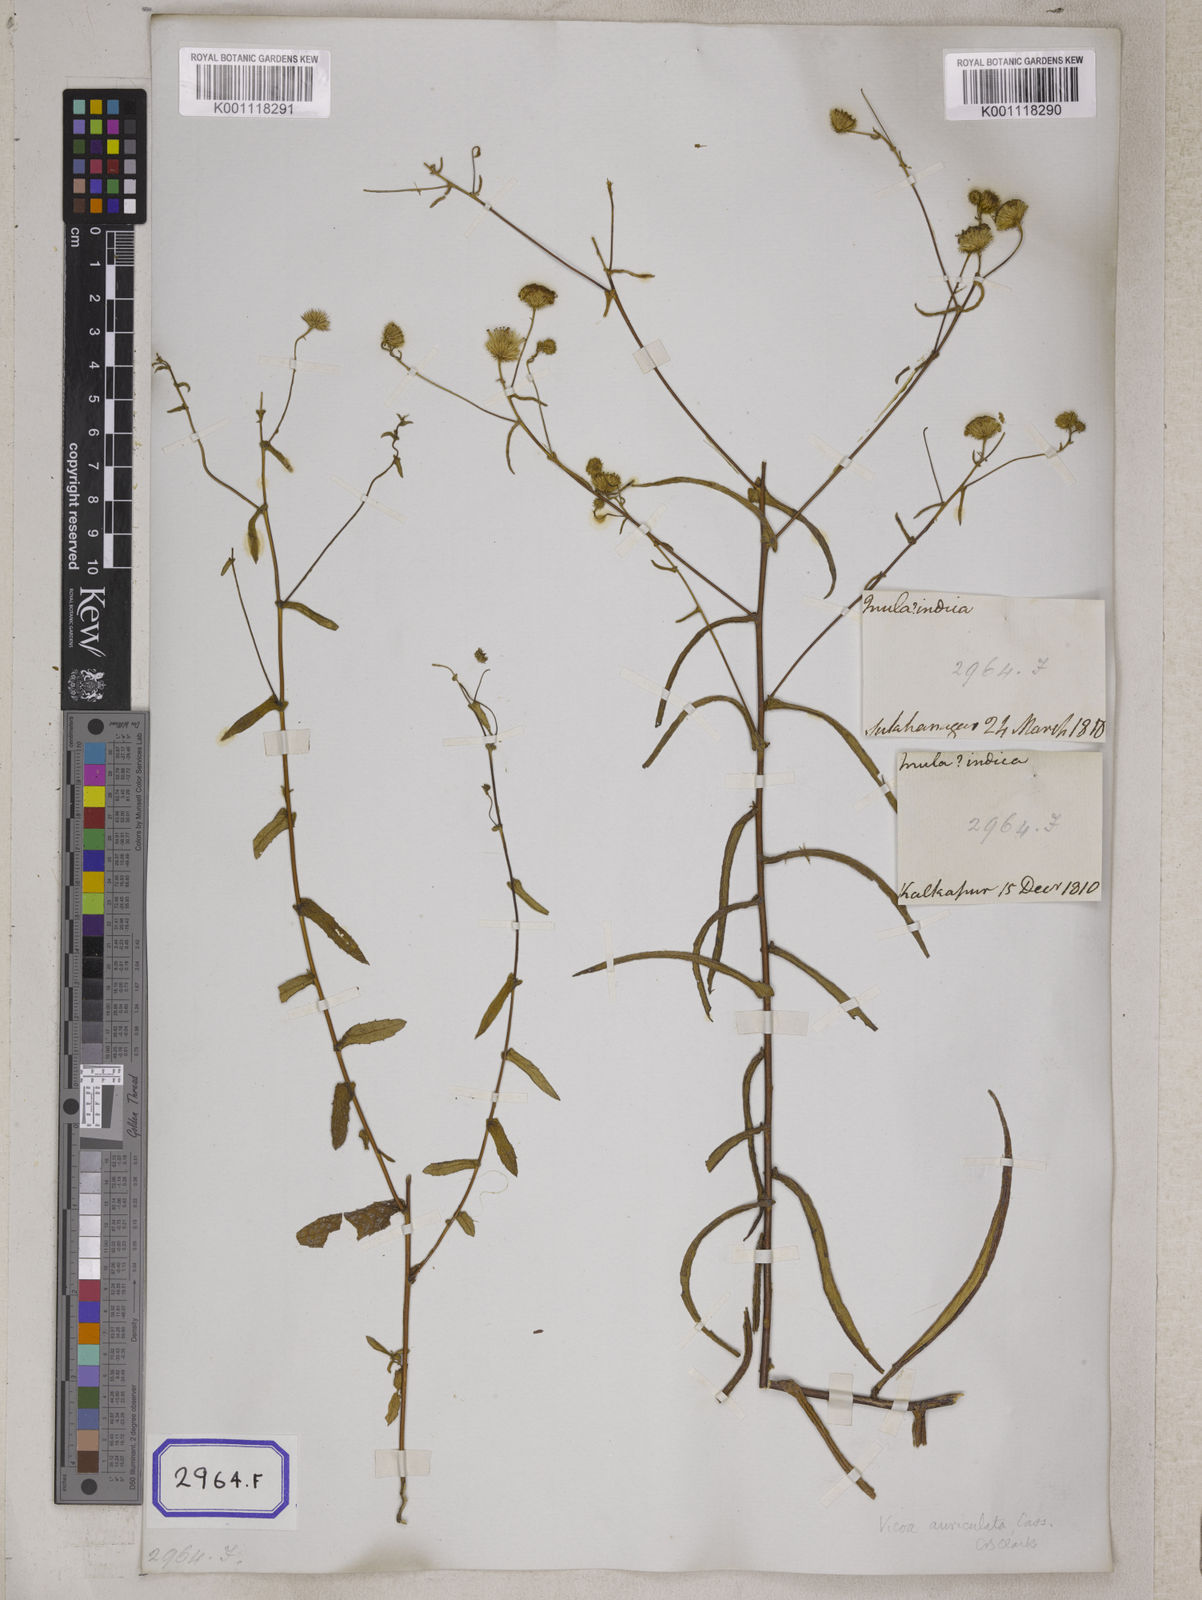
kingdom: Plantae
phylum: Tracheophyta
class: Magnoliopsida
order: Asterales
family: Asteraceae
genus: Vicoa
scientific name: Vicoa indica
